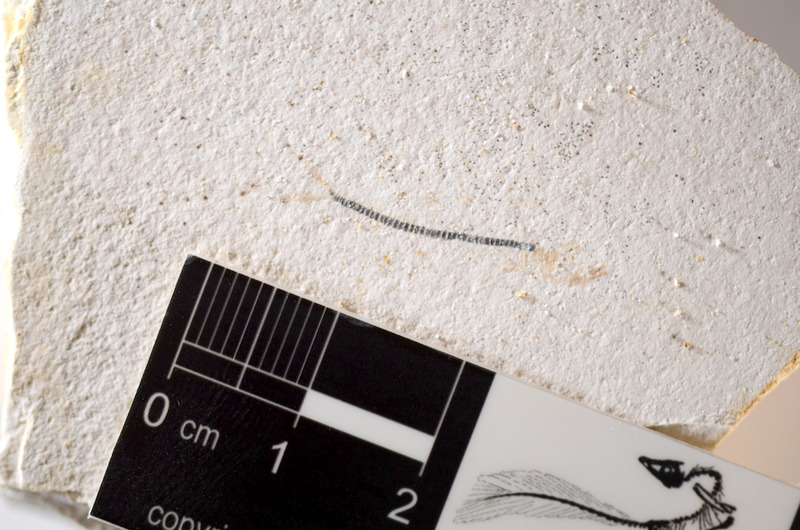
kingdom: Animalia
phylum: Chordata
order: Salmoniformes
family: Orthogonikleithridae
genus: Orthogonikleithrus
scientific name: Orthogonikleithrus hoelli
